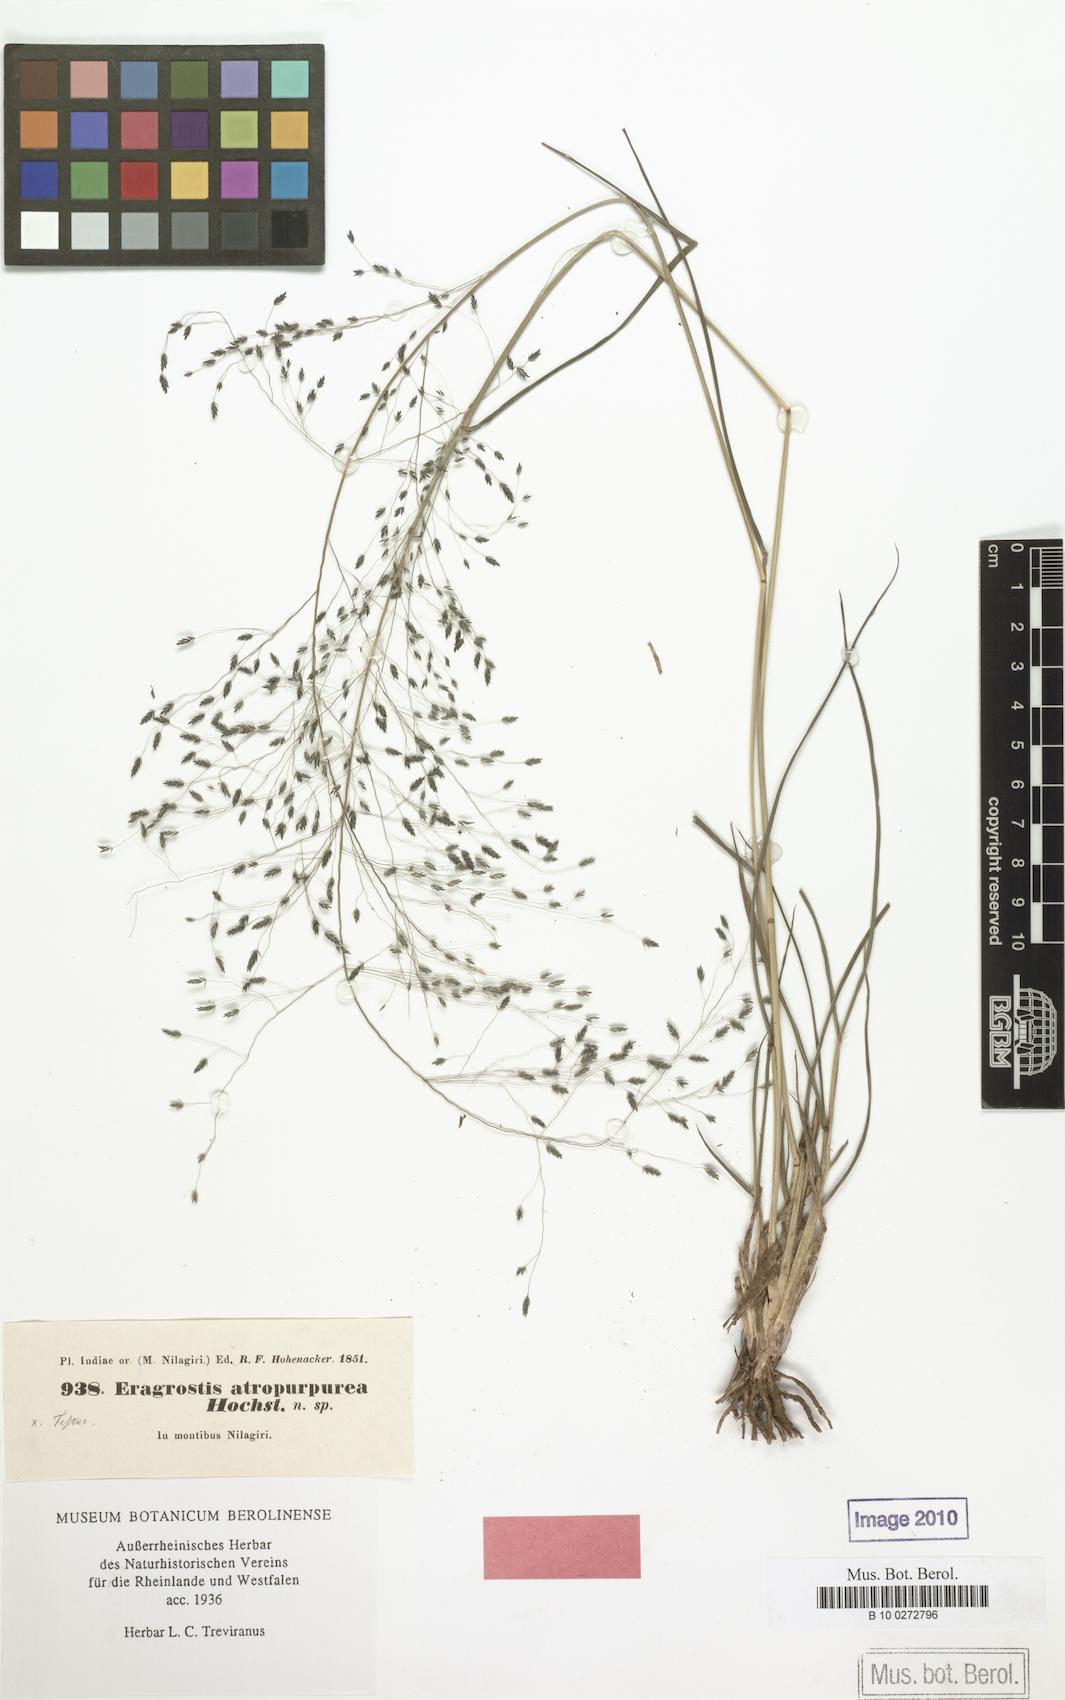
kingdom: Plantae
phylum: Tracheophyta
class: Liliopsida
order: Poales
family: Poaceae
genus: Eragrostis
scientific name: Eragrostis nigra
